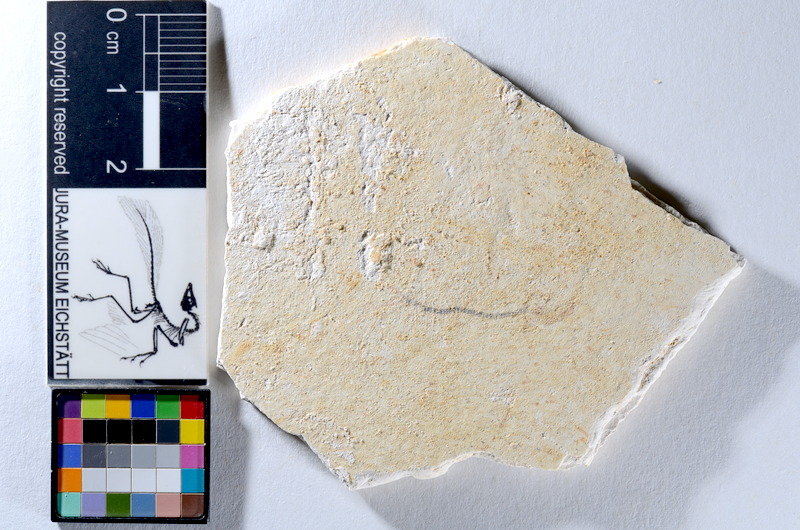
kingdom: Animalia
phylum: Chordata
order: Salmoniformes
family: Orthogonikleithridae
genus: Orthogonikleithrus
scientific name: Orthogonikleithrus hoelli
